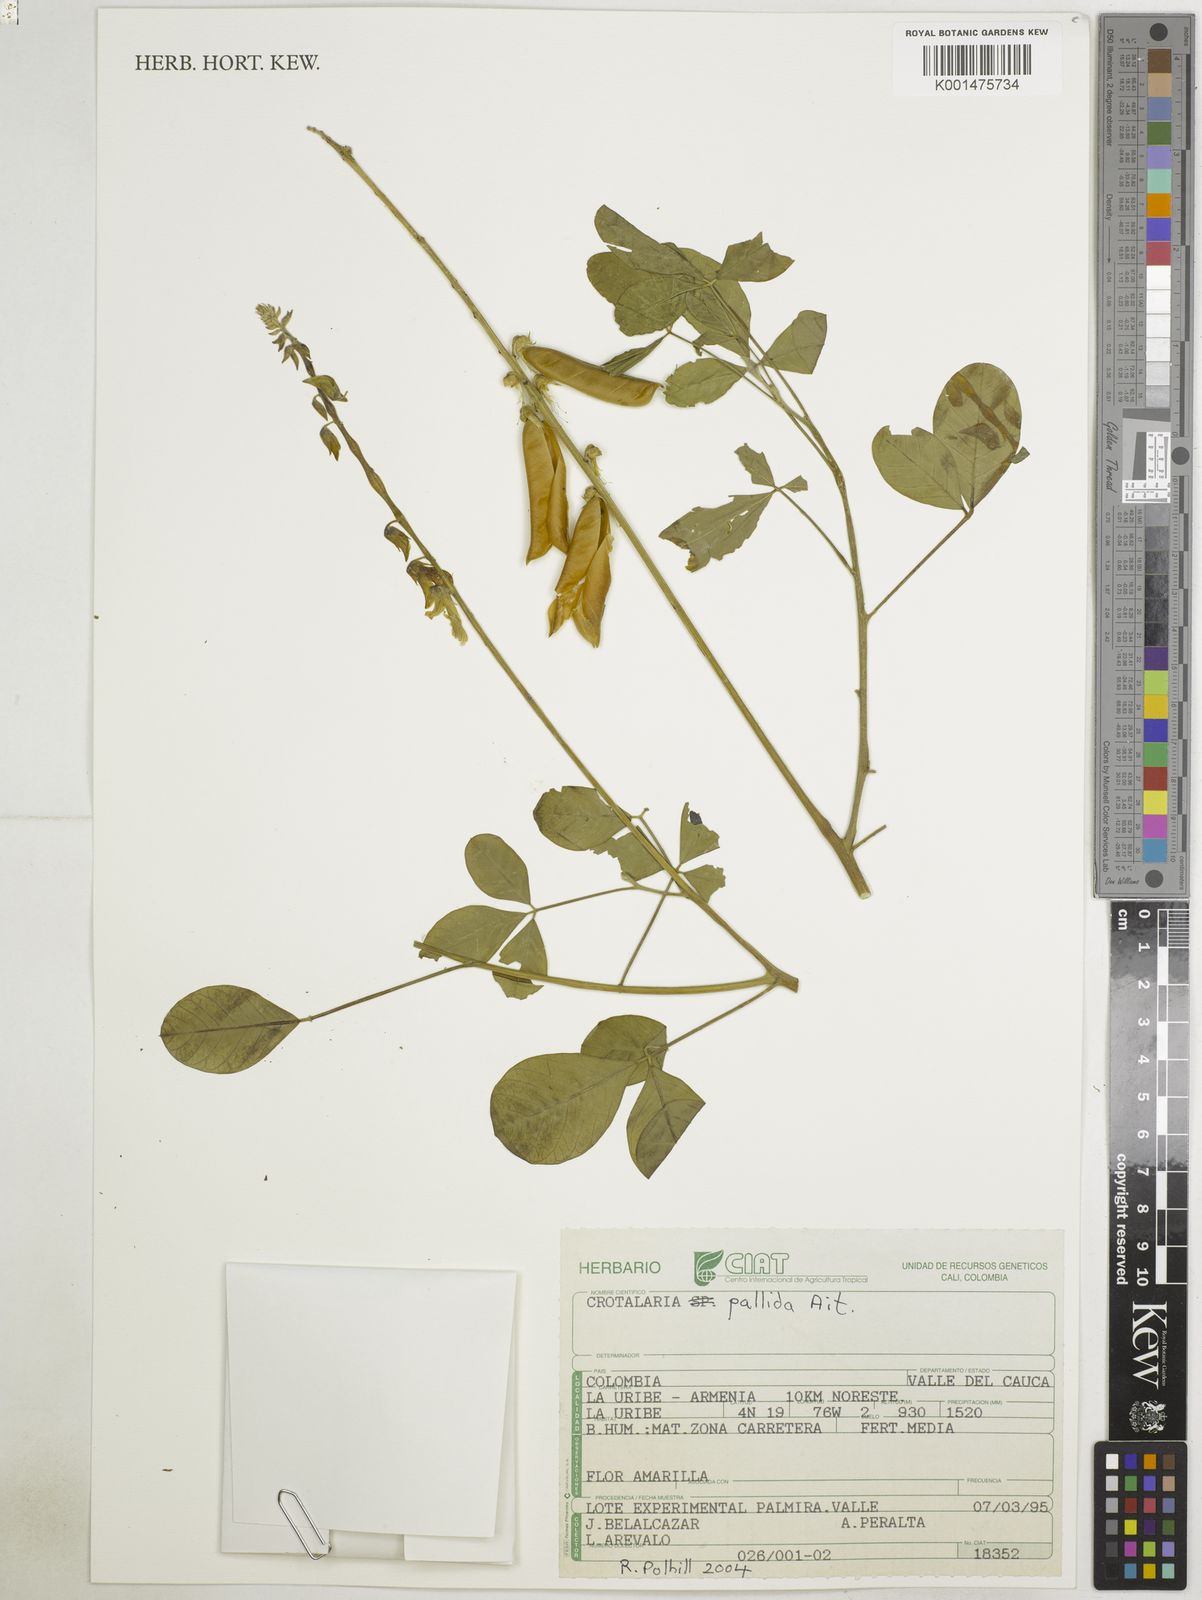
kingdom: Plantae
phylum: Tracheophyta
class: Magnoliopsida
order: Fabales
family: Fabaceae
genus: Crotalaria
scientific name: Crotalaria pallida
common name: Smooth rattlebox
